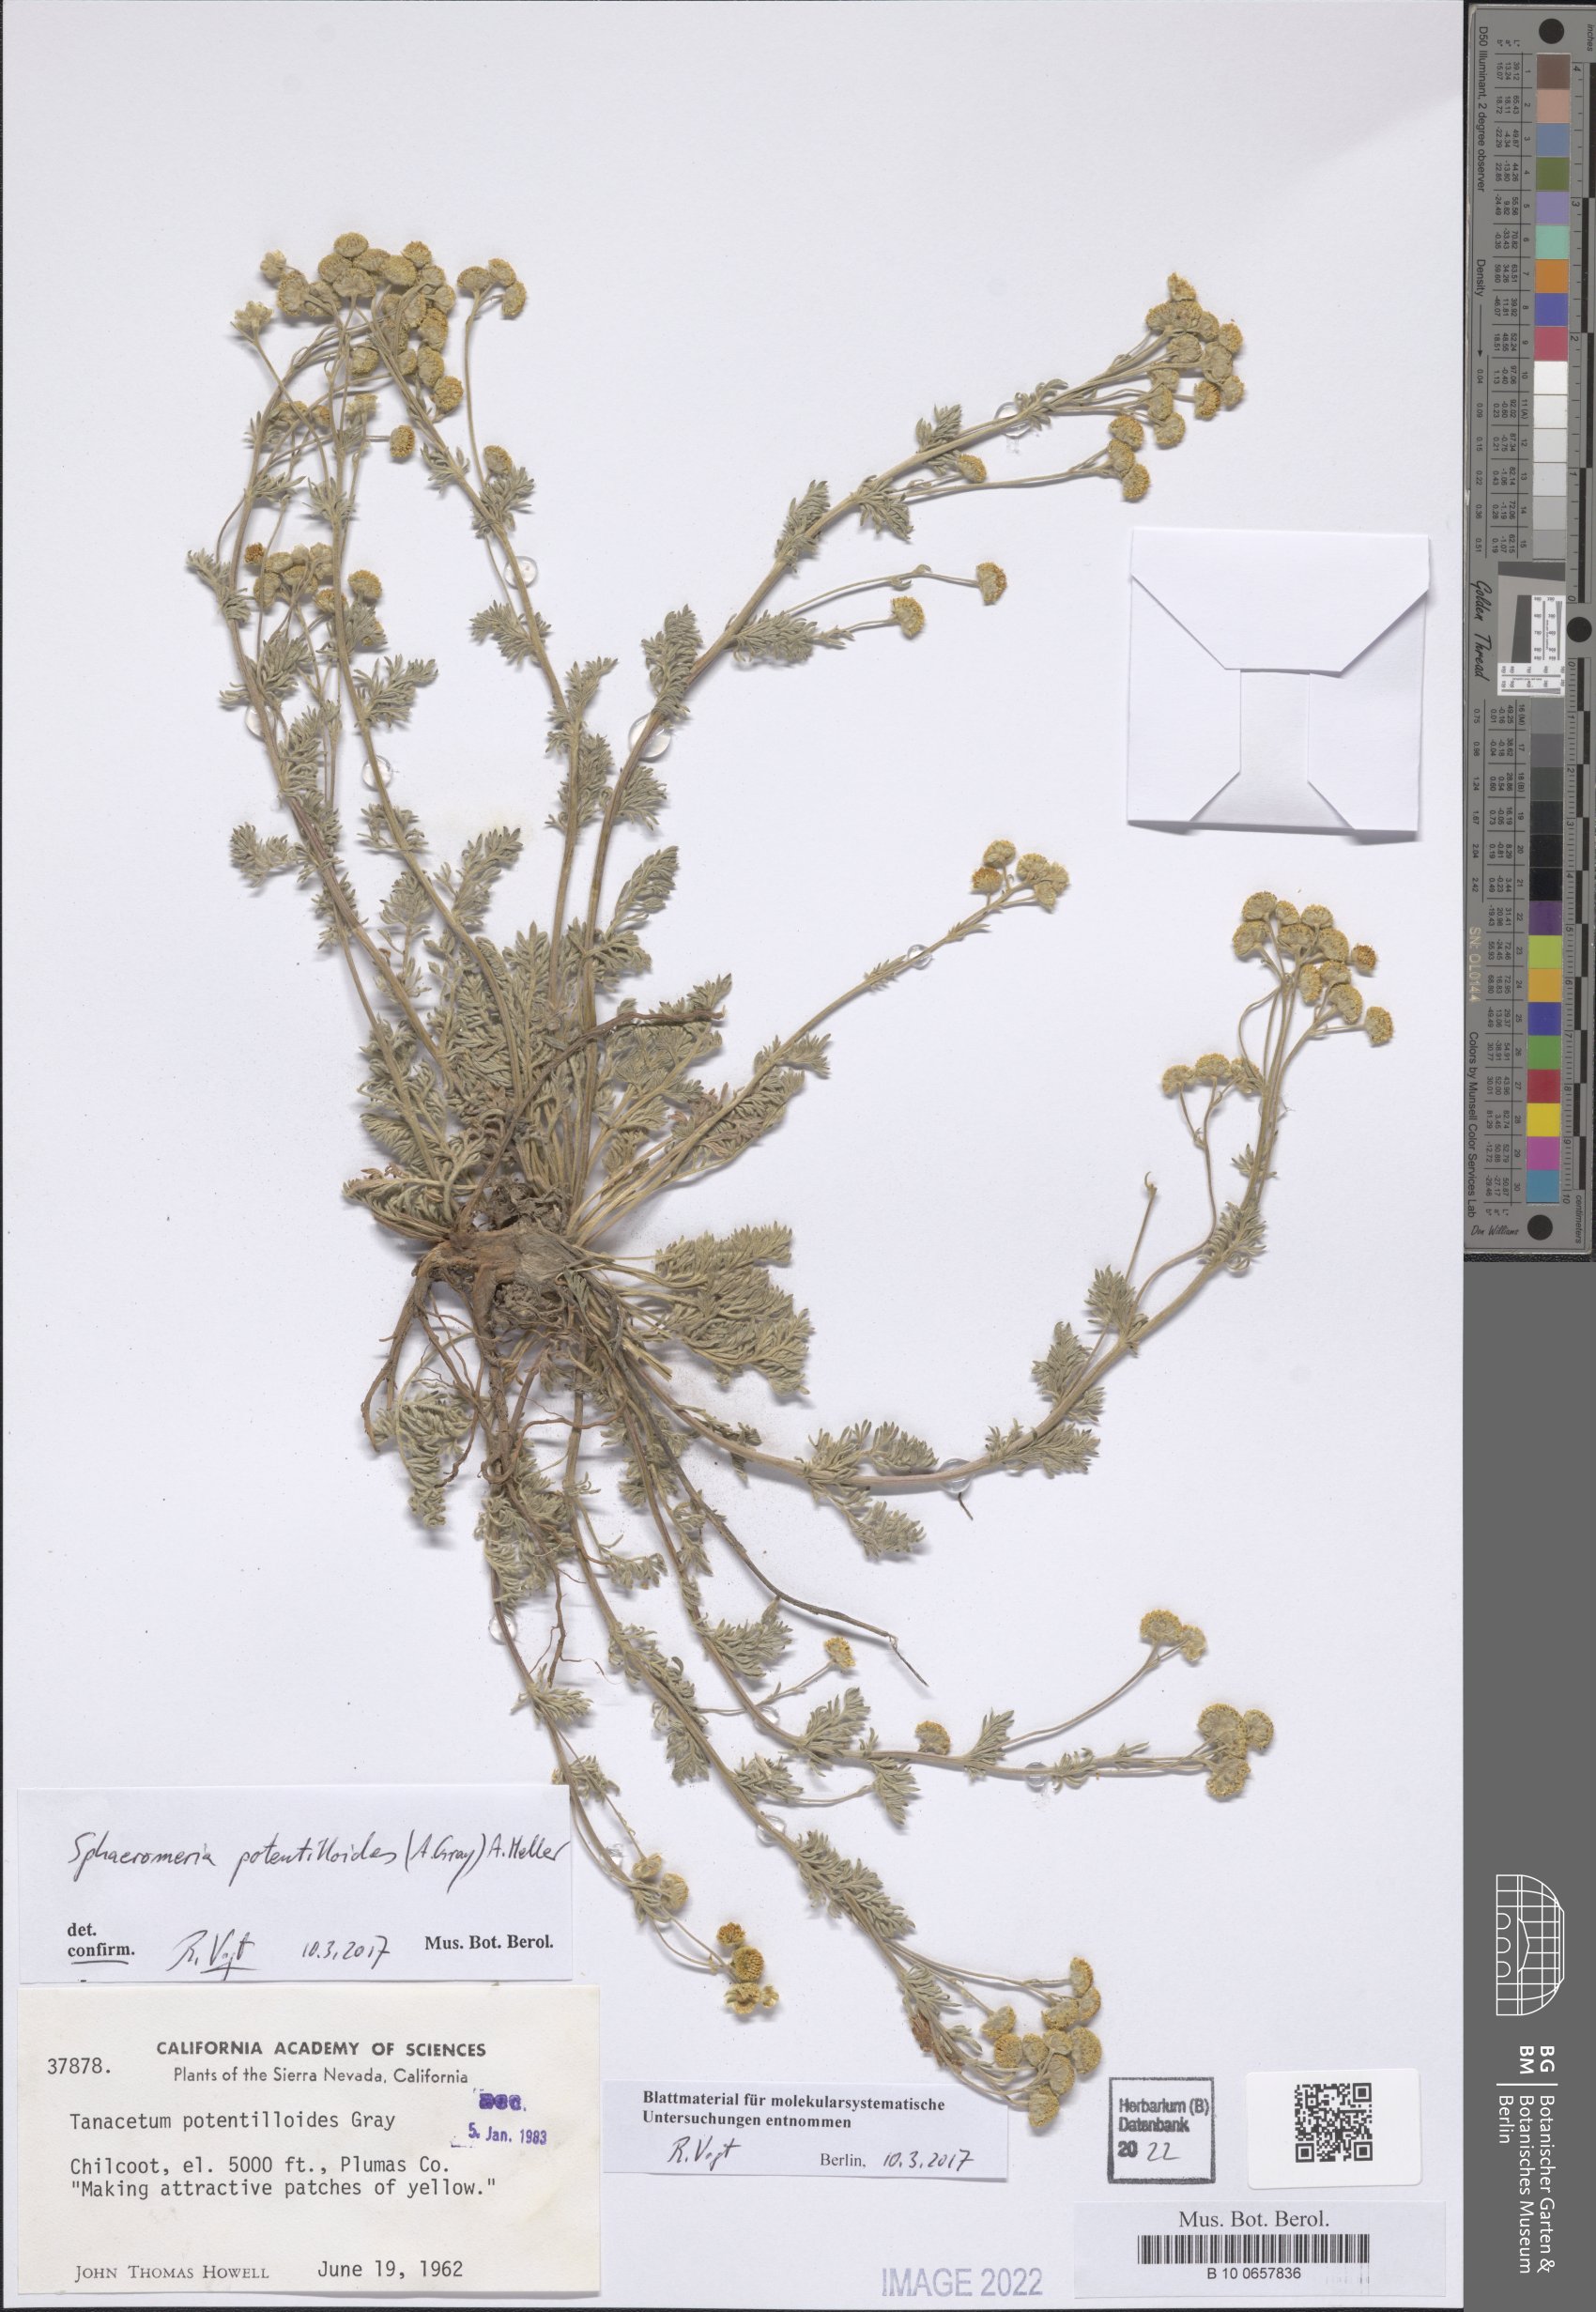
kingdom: Plantae
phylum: Tracheophyta
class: Magnoliopsida
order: Asterales
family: Asteraceae
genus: Artemisia
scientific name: Artemisia potentilloides
